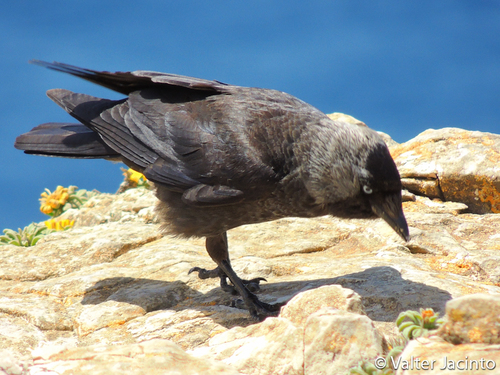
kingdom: Animalia
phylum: Chordata
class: Aves
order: Passeriformes
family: Corvidae
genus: Coloeus
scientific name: Coloeus monedula
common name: Western jackdaw
